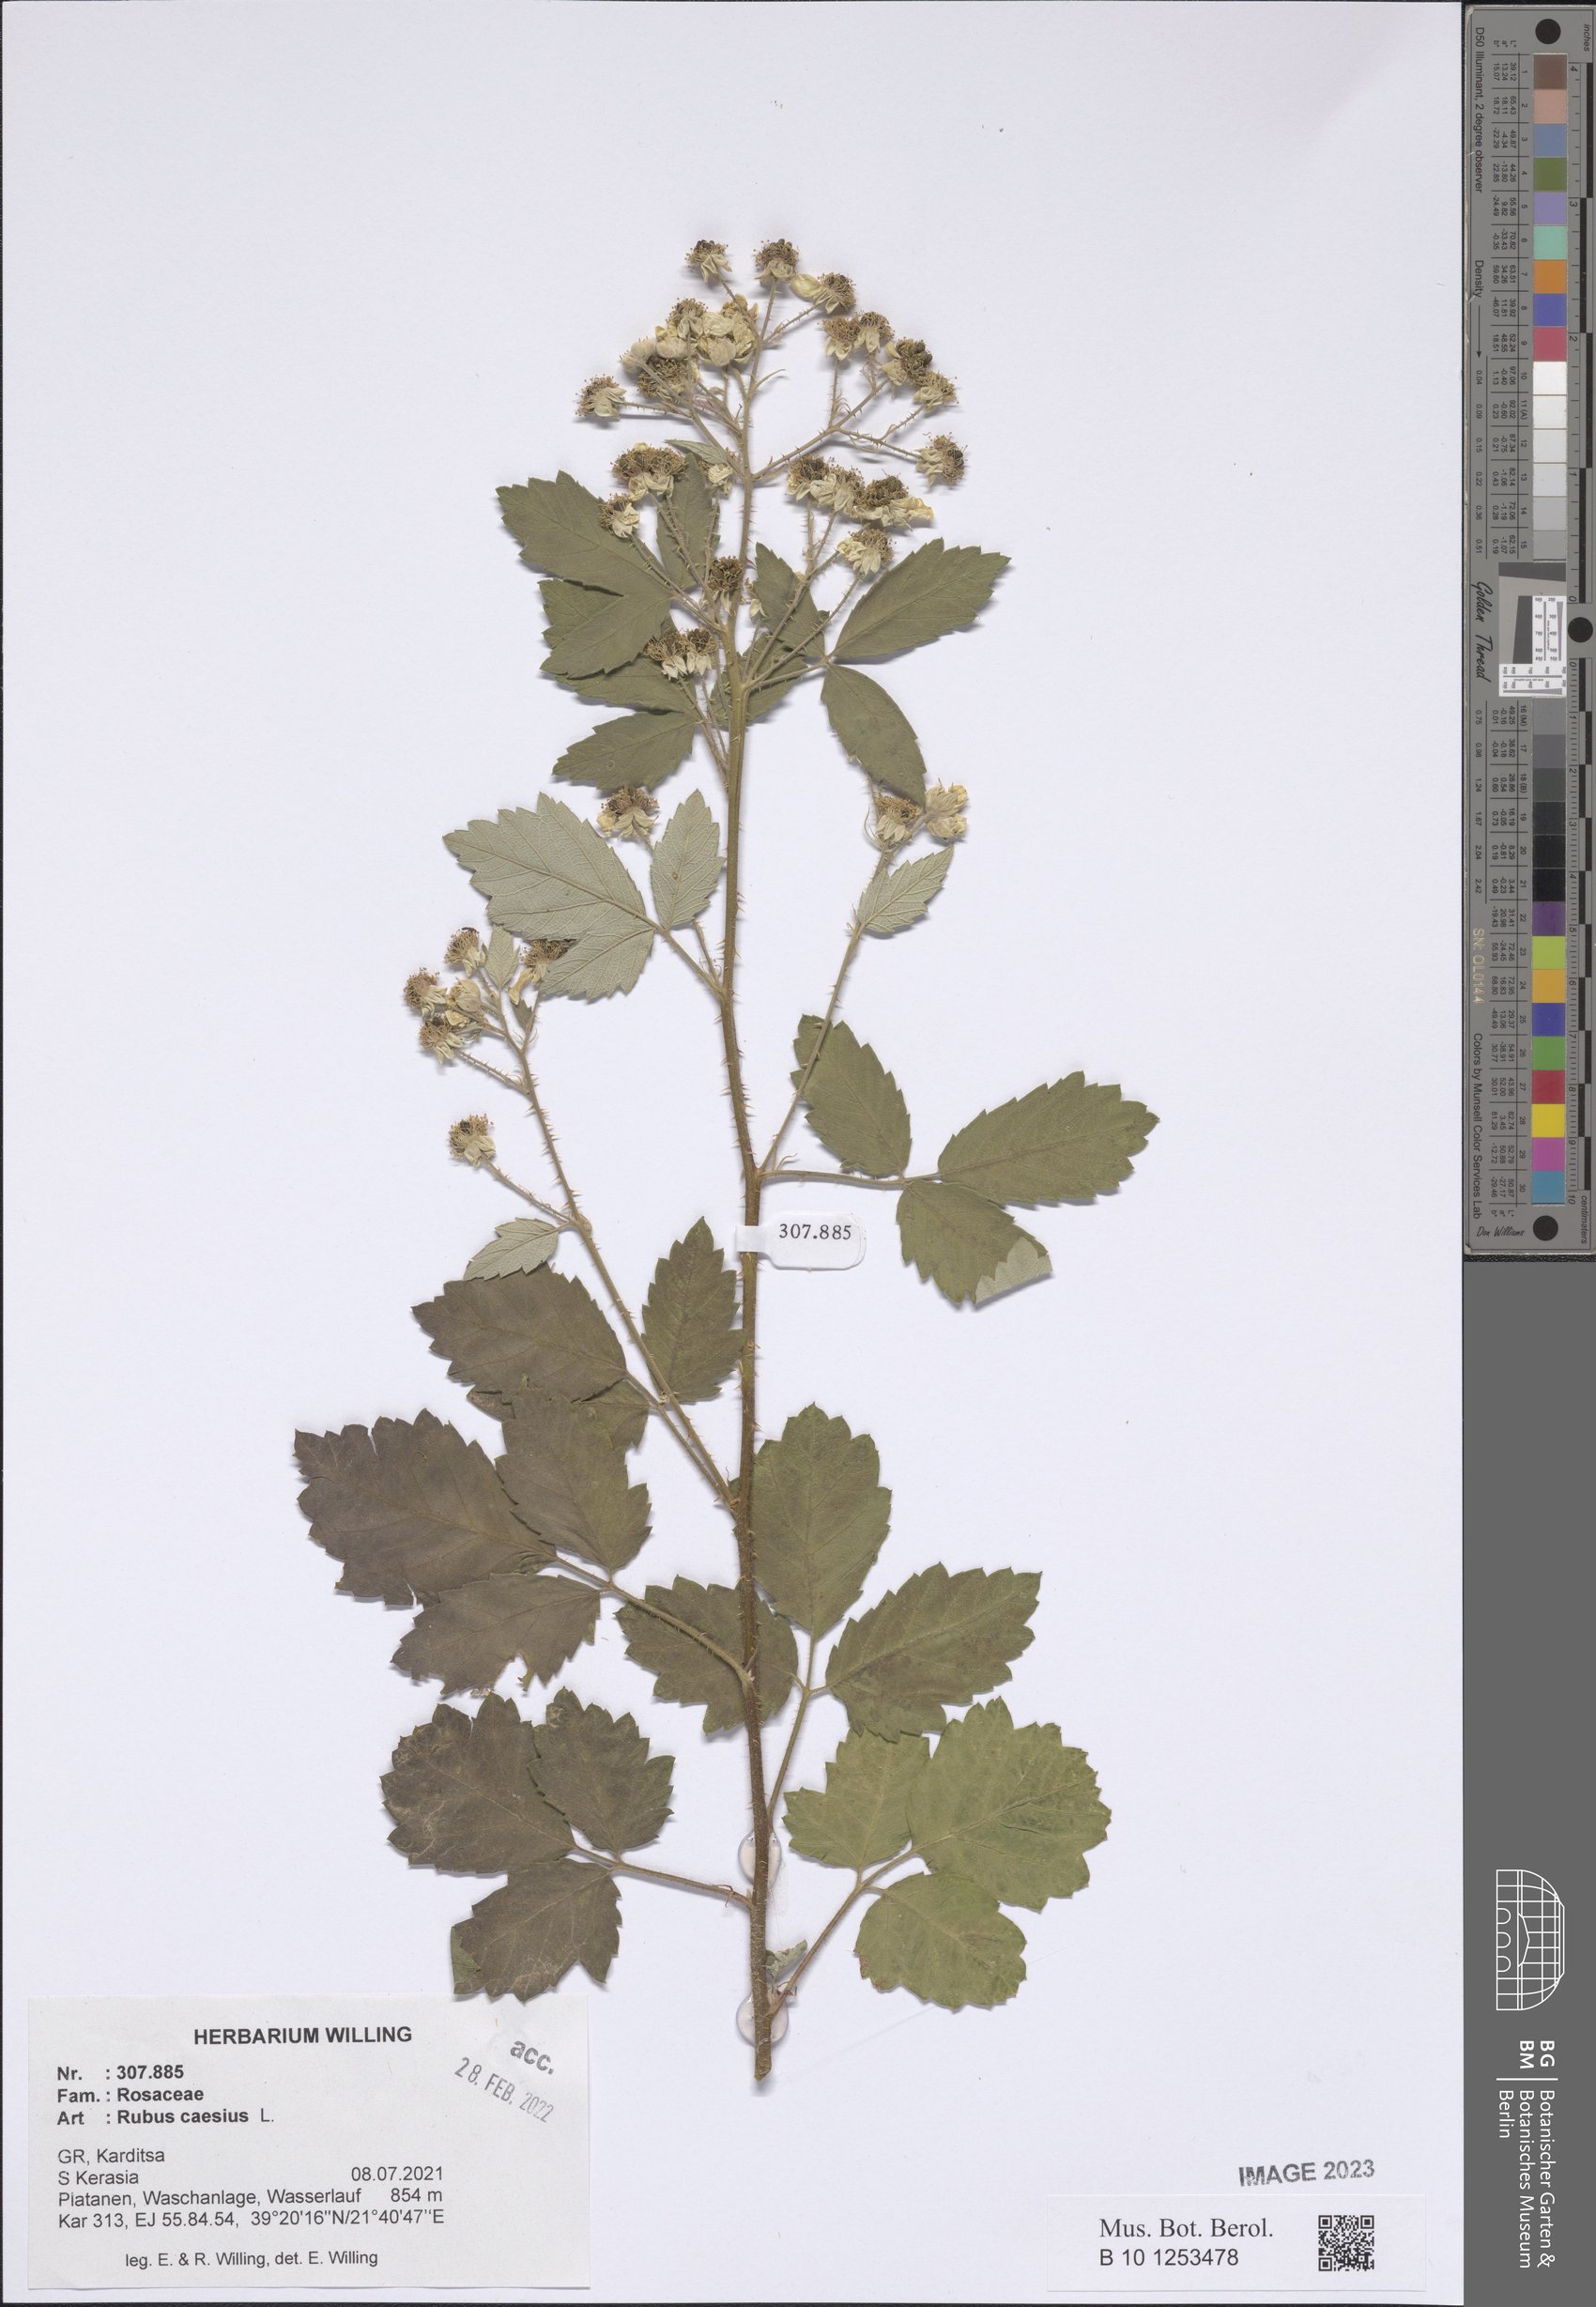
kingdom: Plantae
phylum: Tracheophyta
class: Magnoliopsida
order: Rosales
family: Rosaceae
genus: Rubus
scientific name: Rubus caesius
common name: Dewberry
